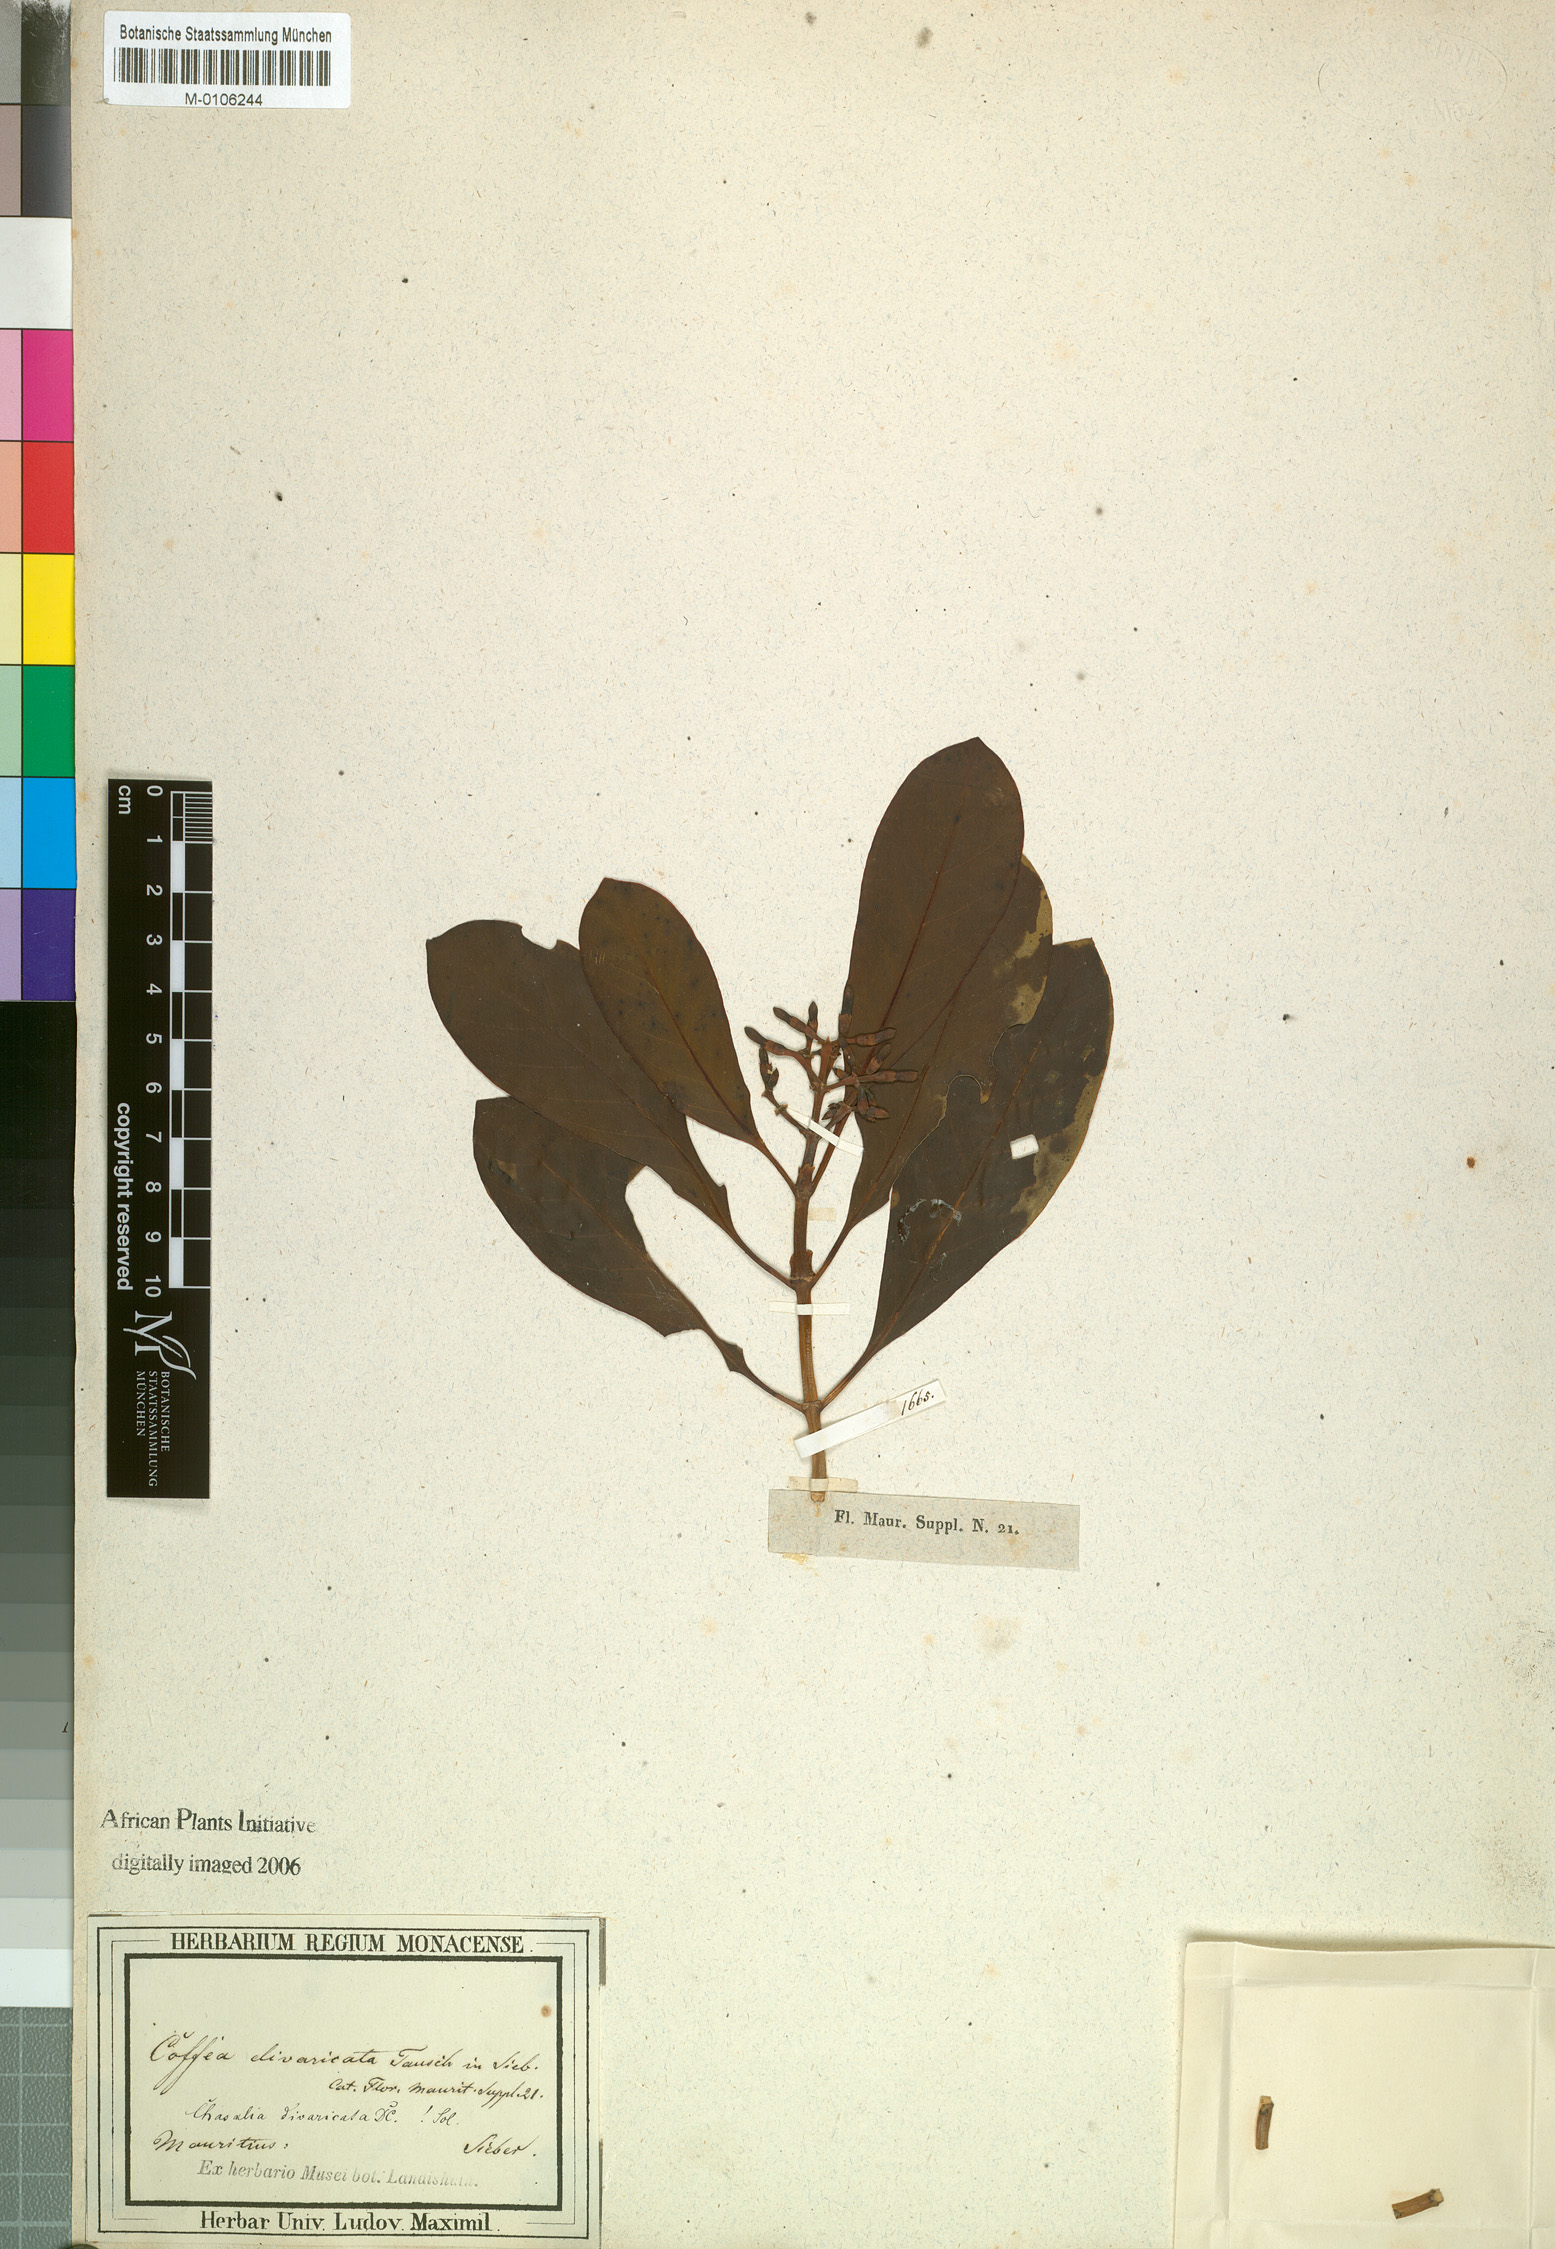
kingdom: Plantae
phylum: Tracheophyta
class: Magnoliopsida
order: Gentianales
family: Rubiaceae
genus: Chassalia
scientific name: Chassalia lanceolata
